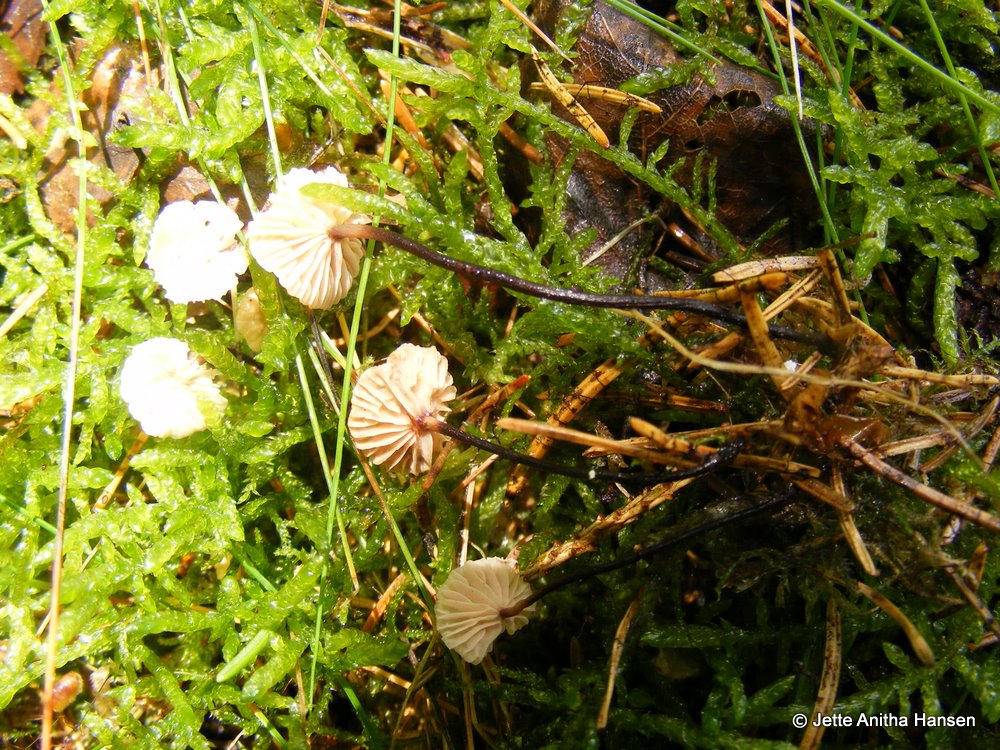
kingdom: Fungi
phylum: Basidiomycota
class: Agaricomycetes
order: Agaricales
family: Omphalotaceae
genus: Paragymnopus
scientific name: Paragymnopus perforans
